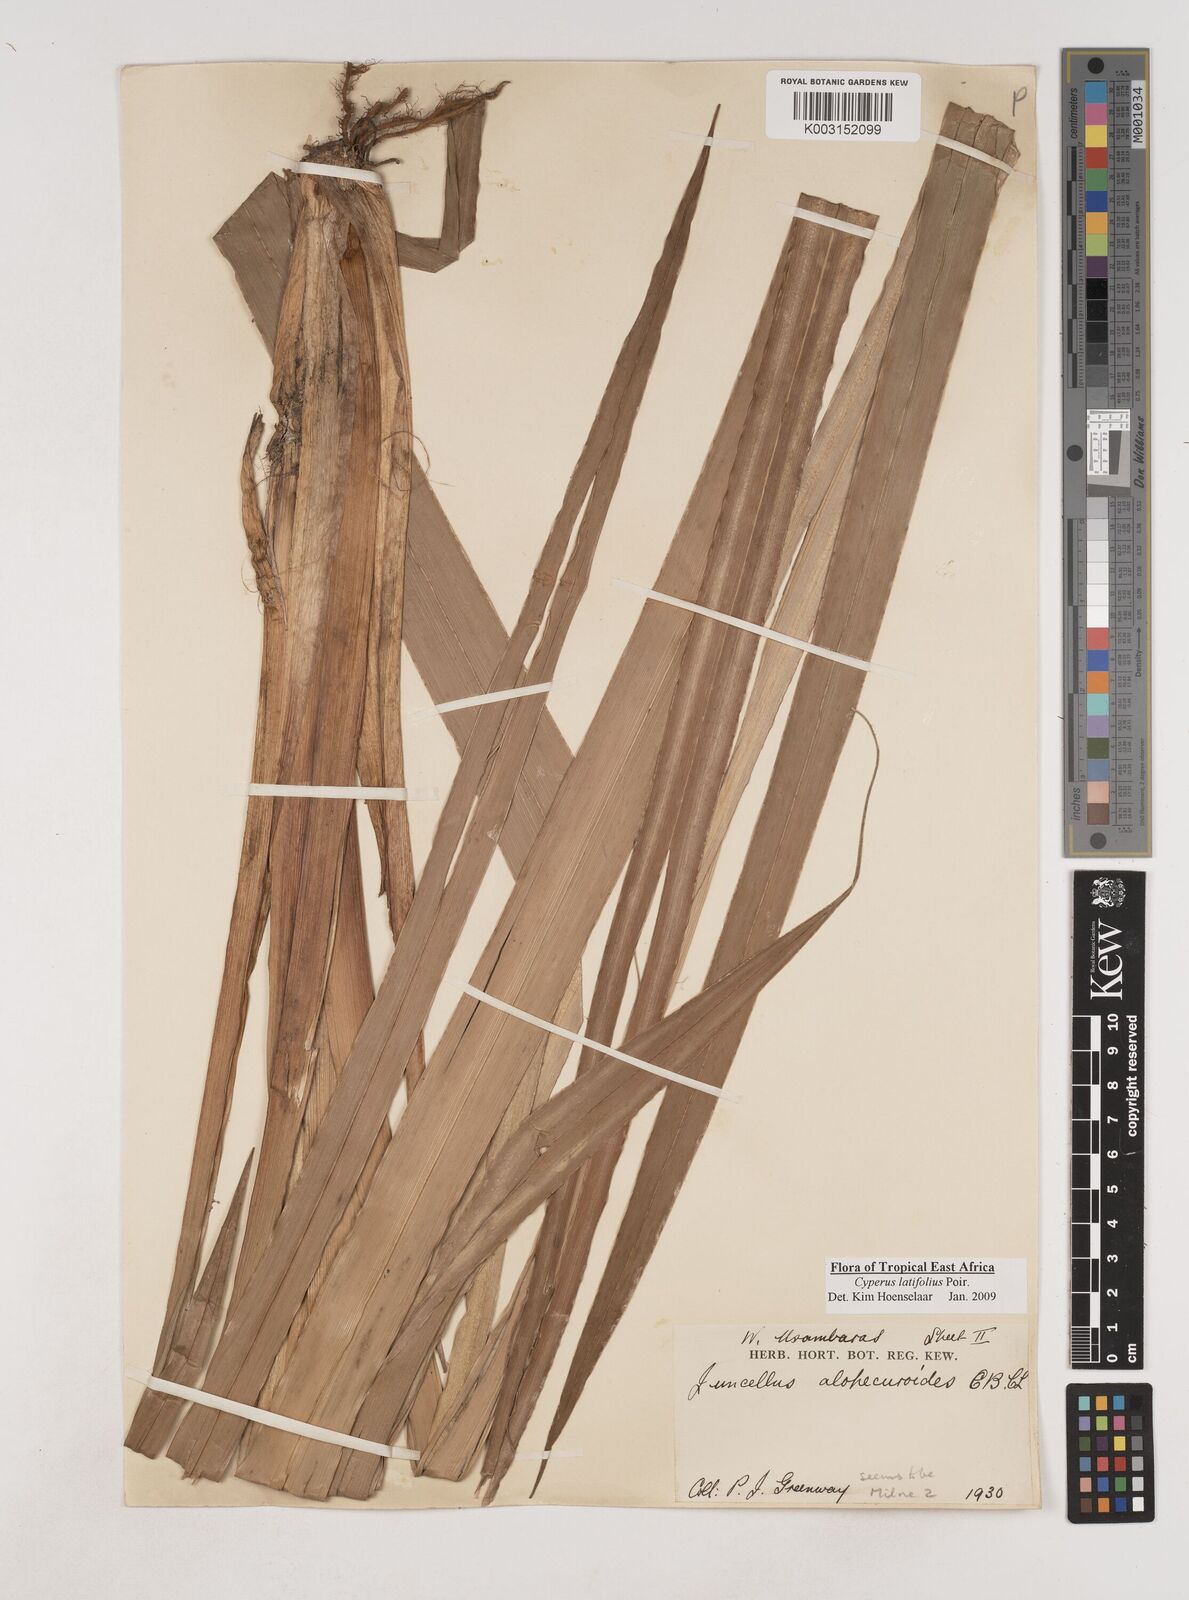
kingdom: Plantae
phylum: Tracheophyta
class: Liliopsida
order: Poales
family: Cyperaceae
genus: Cyperus
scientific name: Cyperus latifolius
